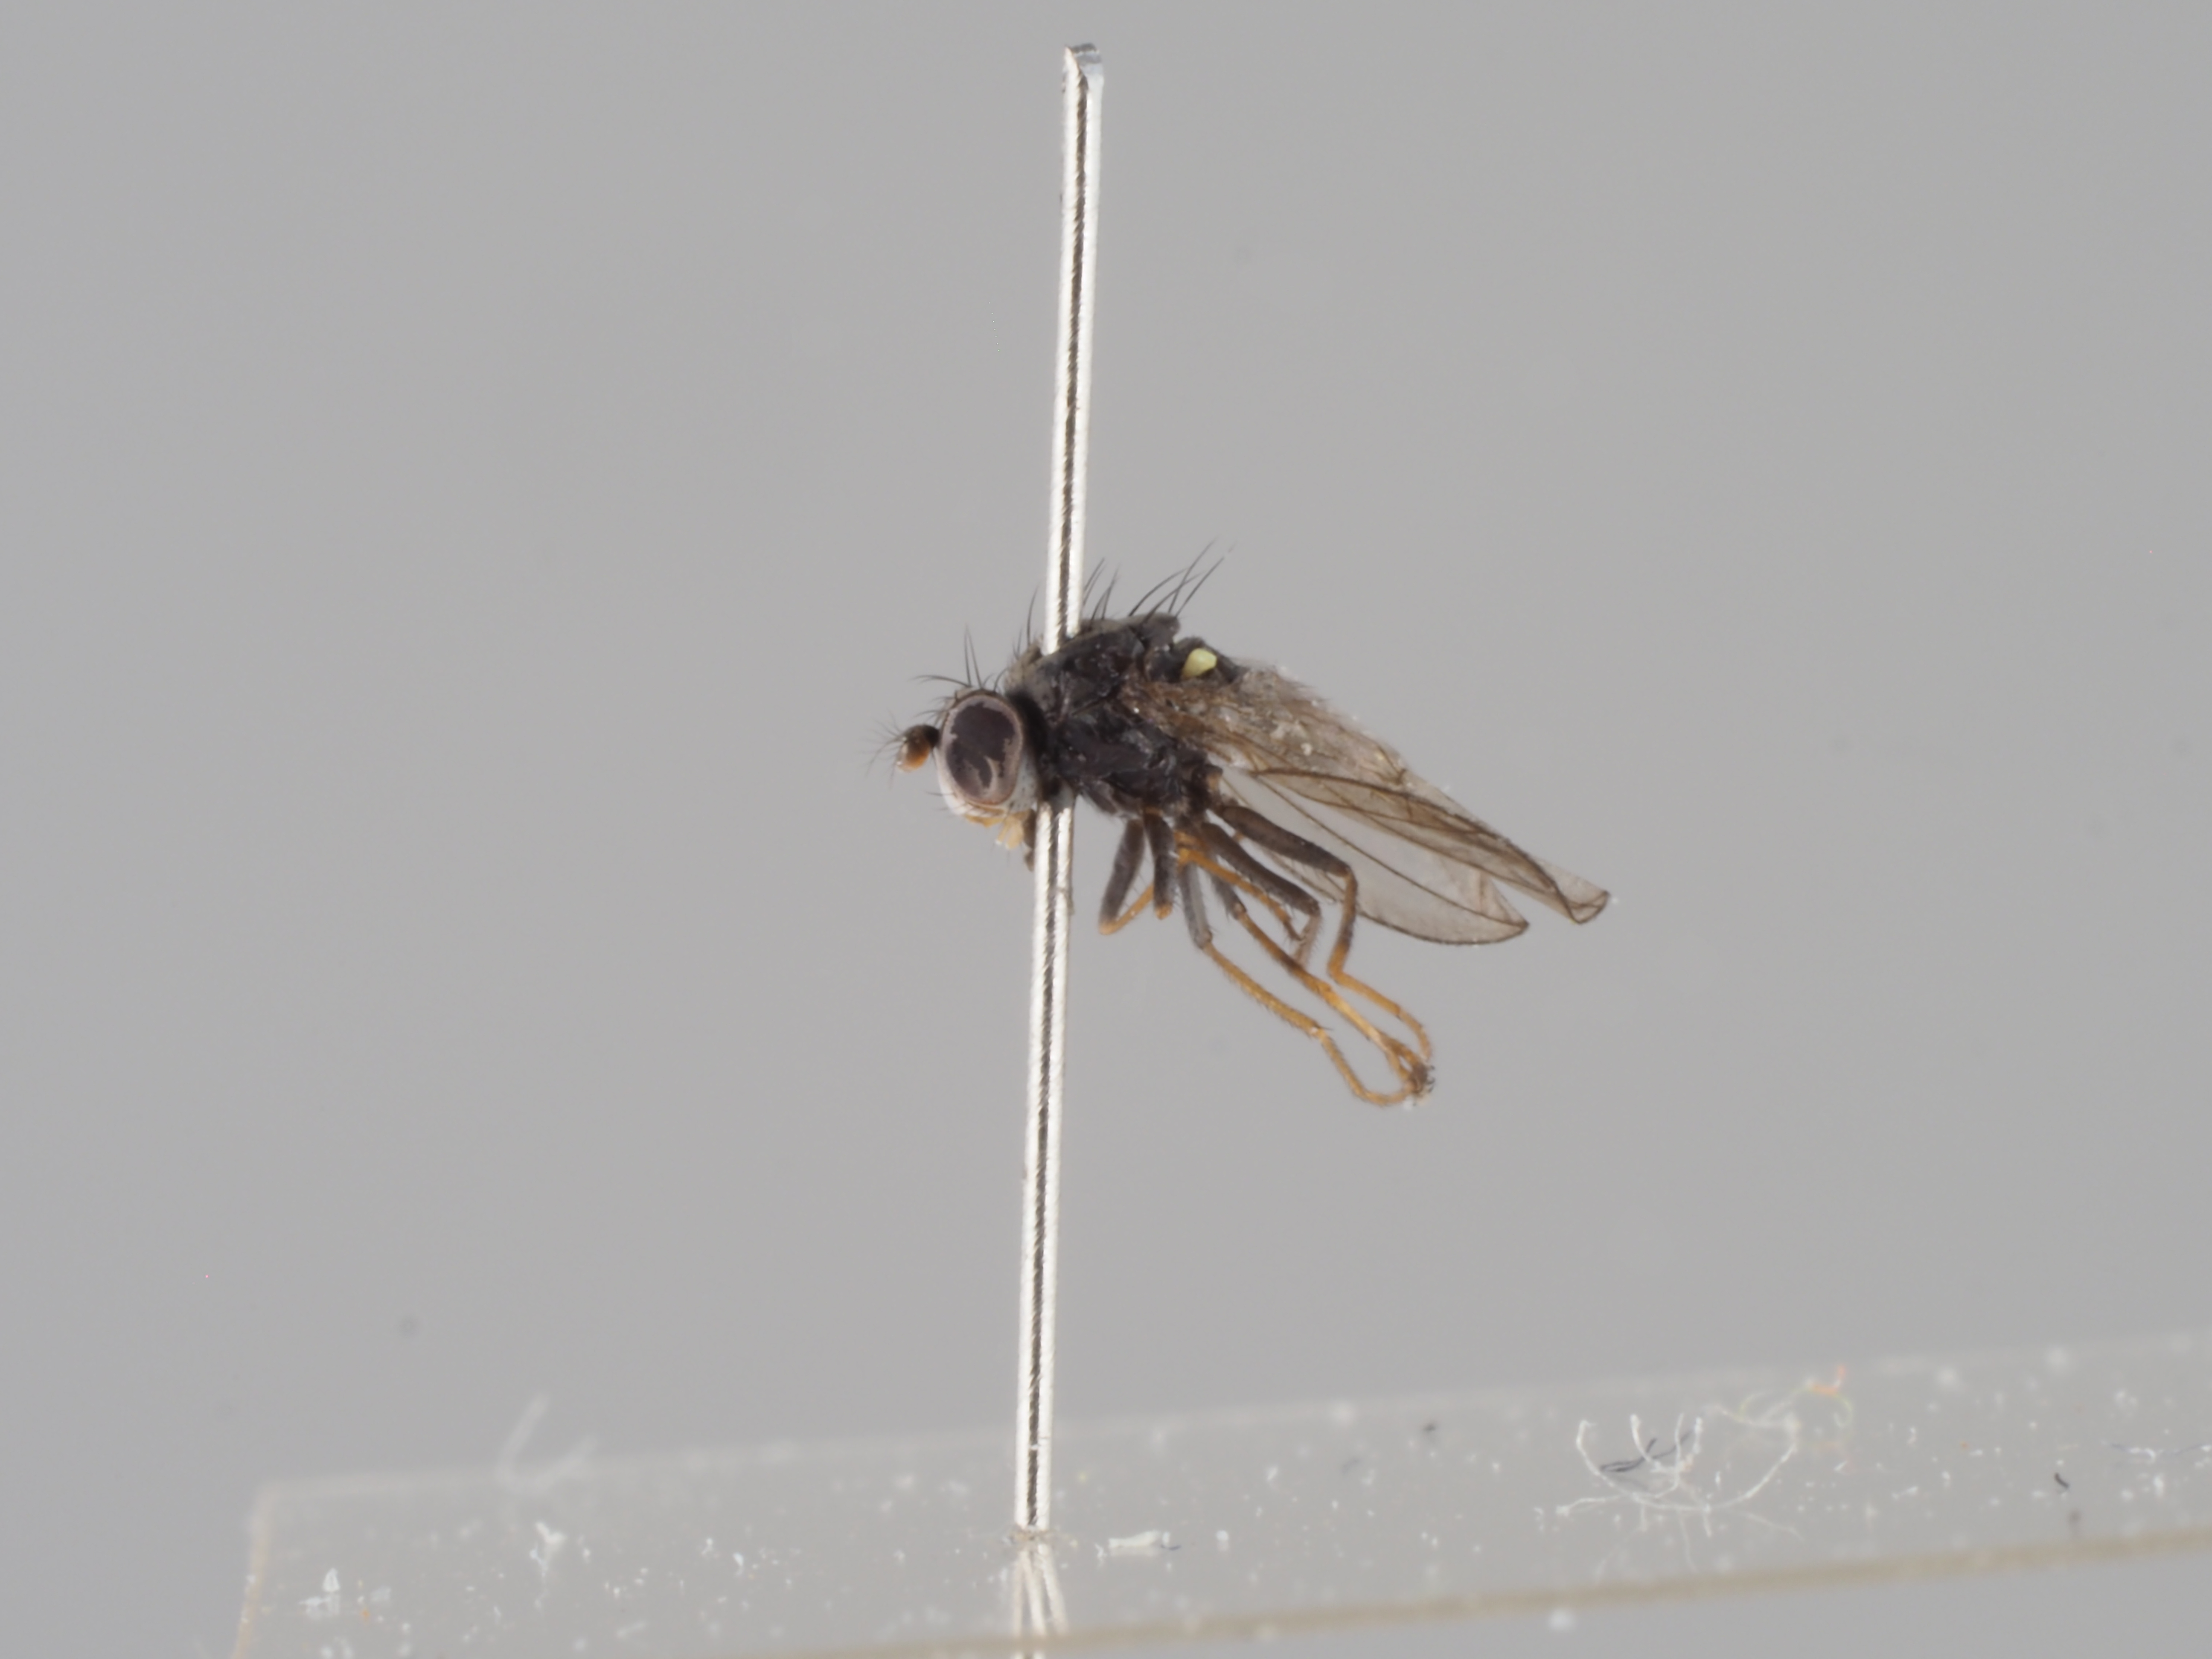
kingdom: Animalia
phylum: Arthropoda
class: Insecta
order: Diptera
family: Ephydridae
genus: Hydrellia
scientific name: Hydrellia obscura
